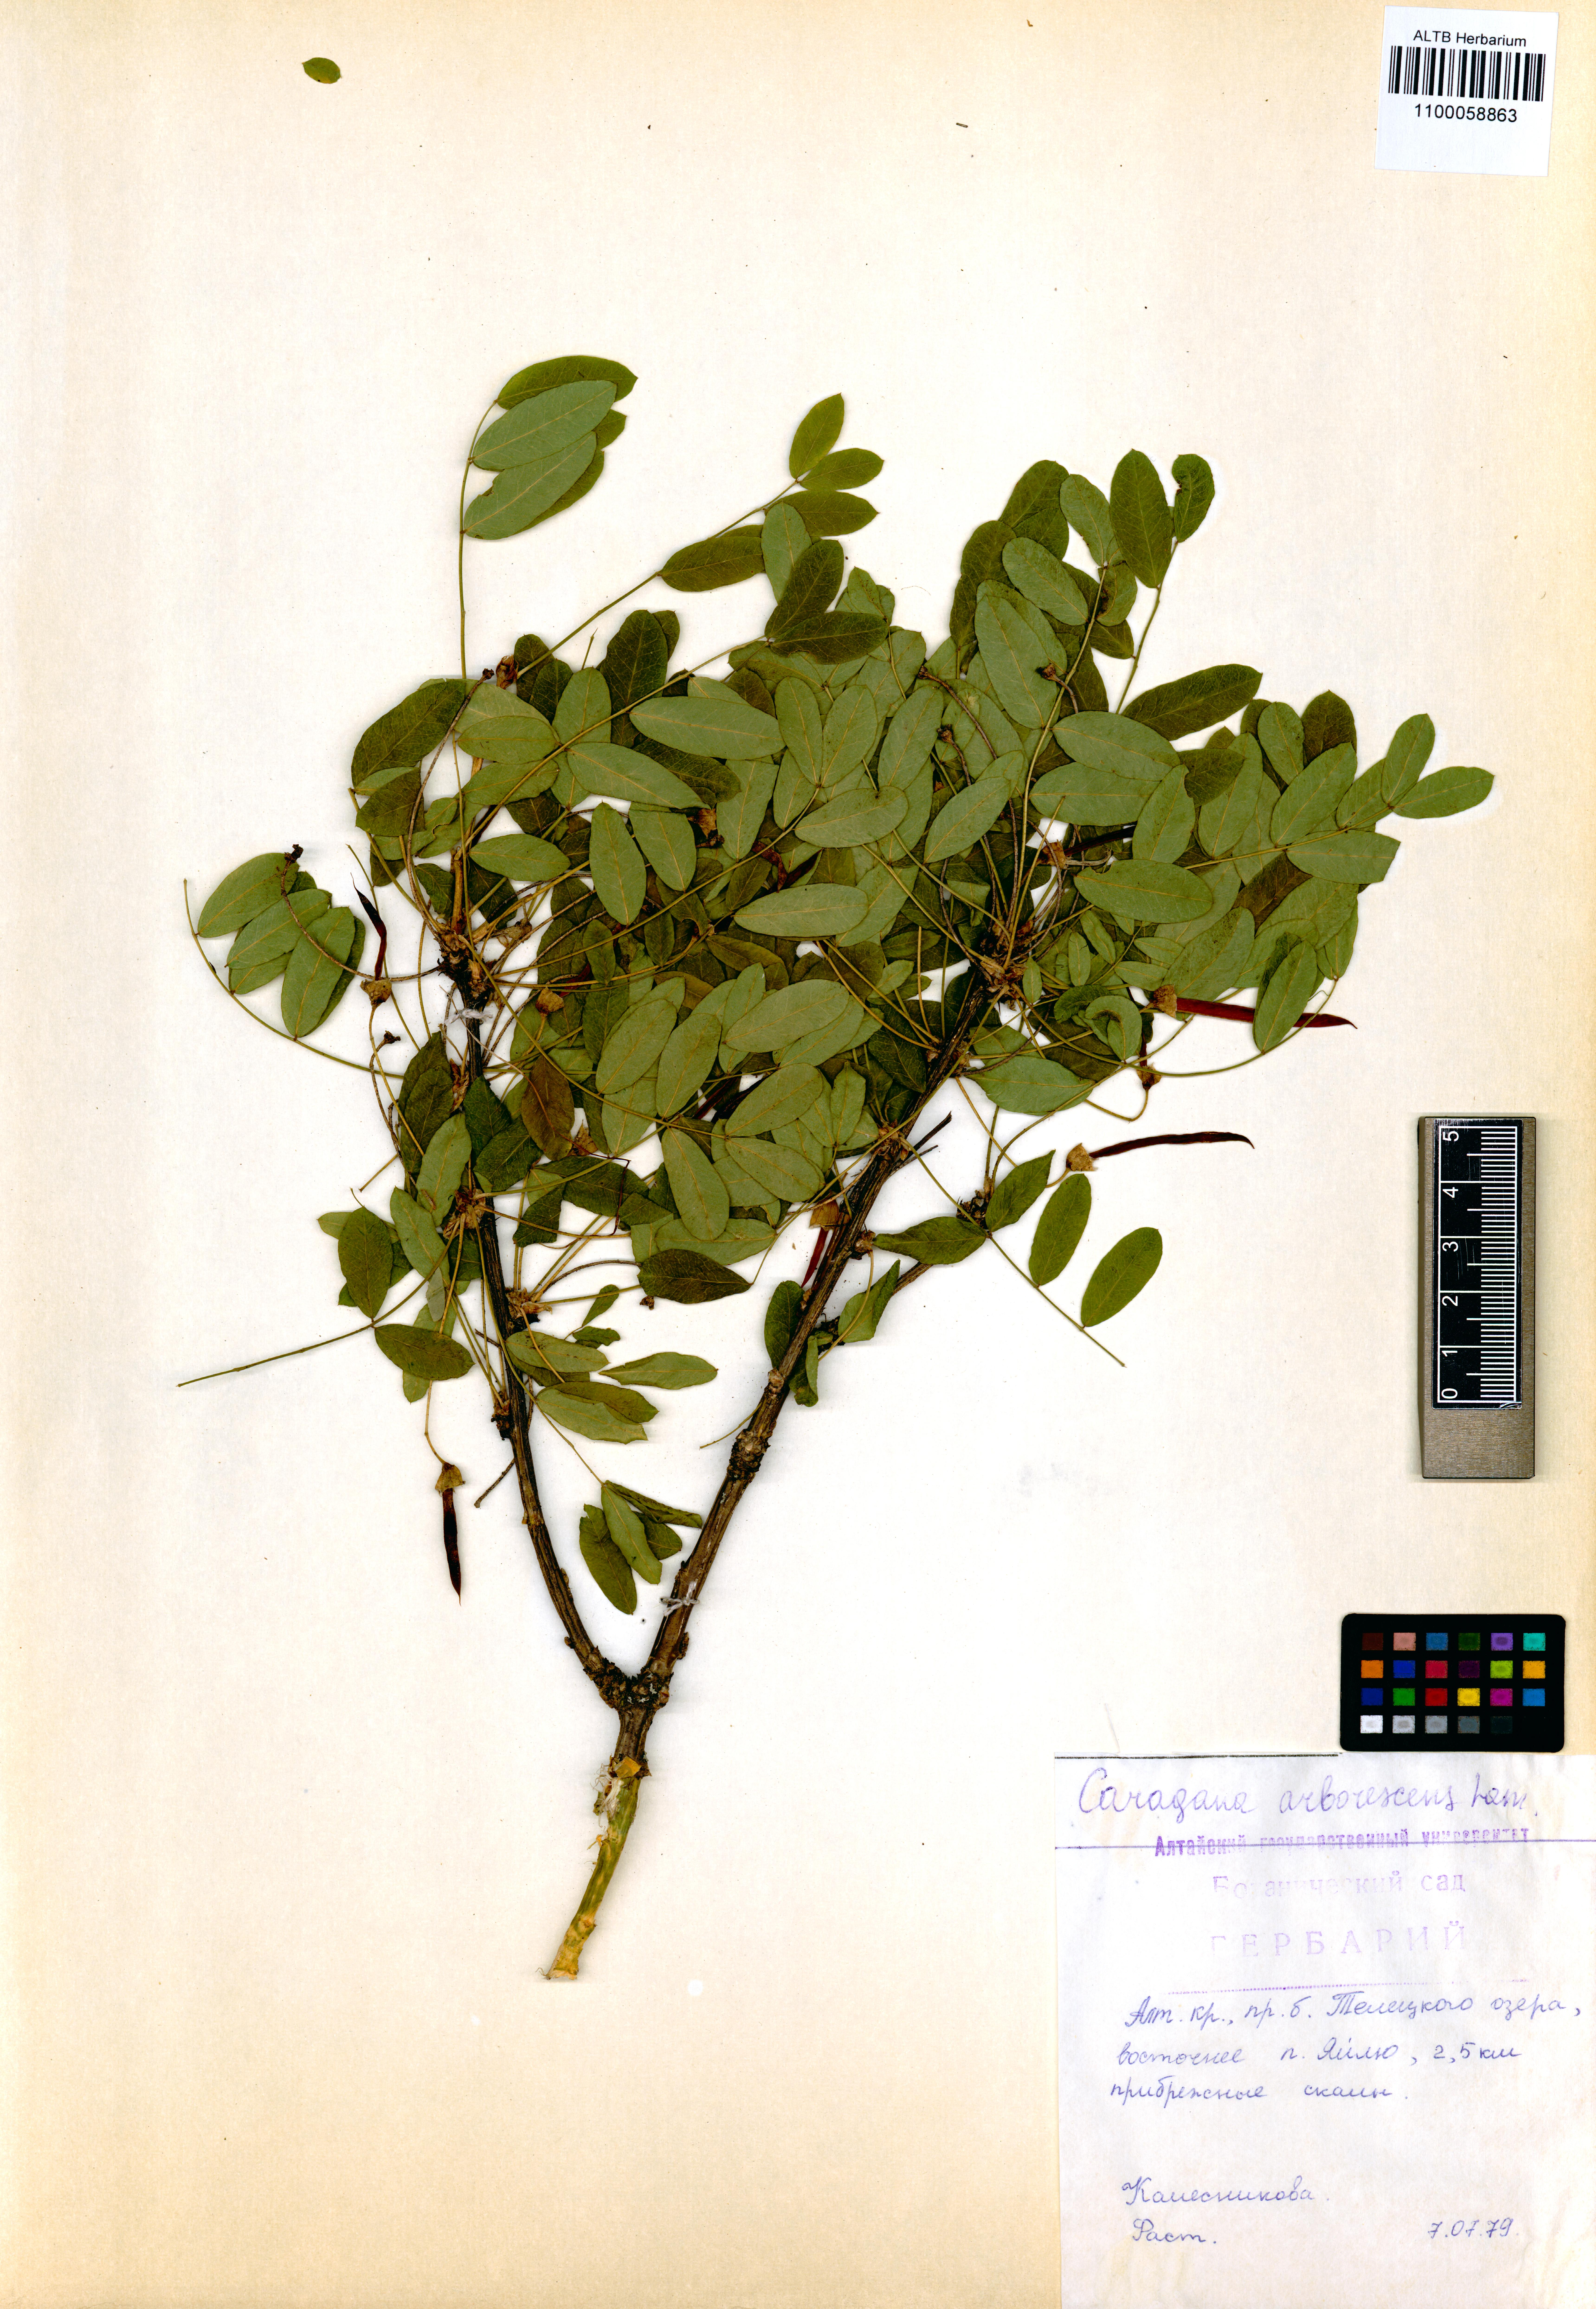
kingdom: Plantae
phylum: Tracheophyta
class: Magnoliopsida
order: Fabales
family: Fabaceae
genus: Caragana
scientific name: Caragana arborescens
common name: Siberian peashrub
